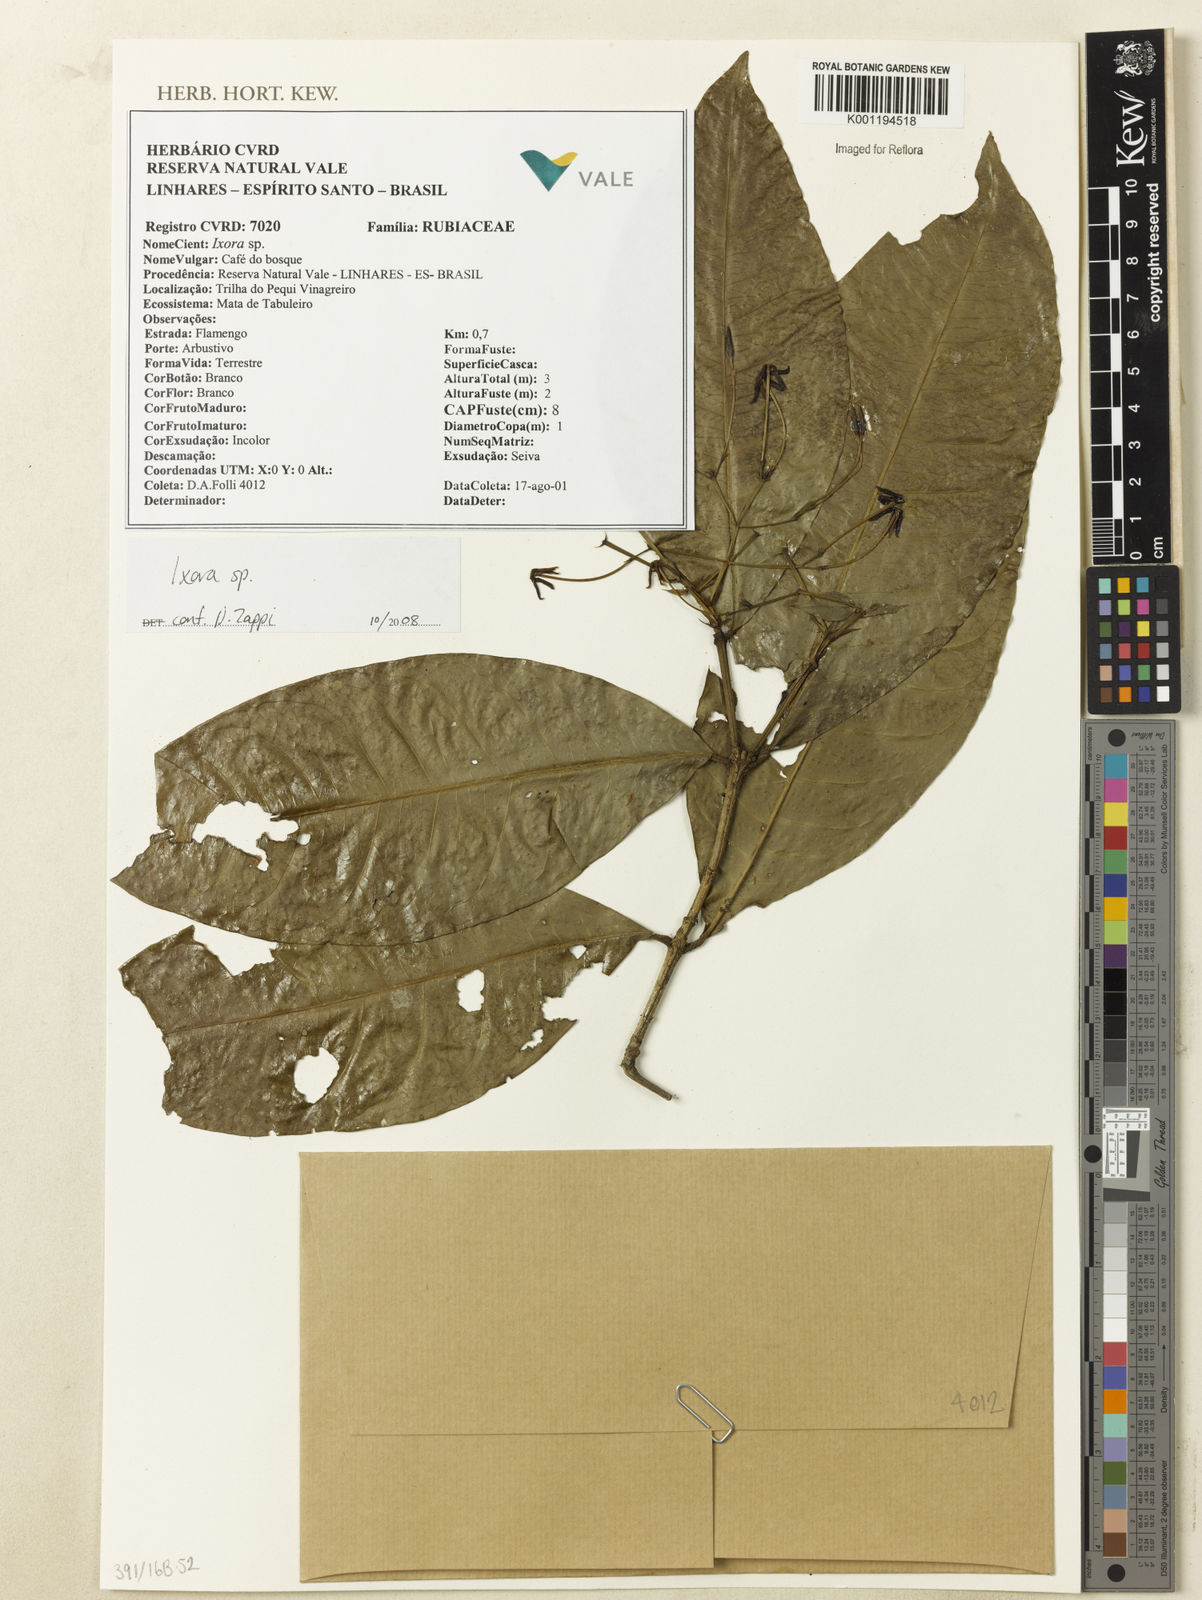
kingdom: Plantae
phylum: Tracheophyta
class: Magnoliopsida
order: Gentianales
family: Rubiaceae
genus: Ixora
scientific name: Ixora
